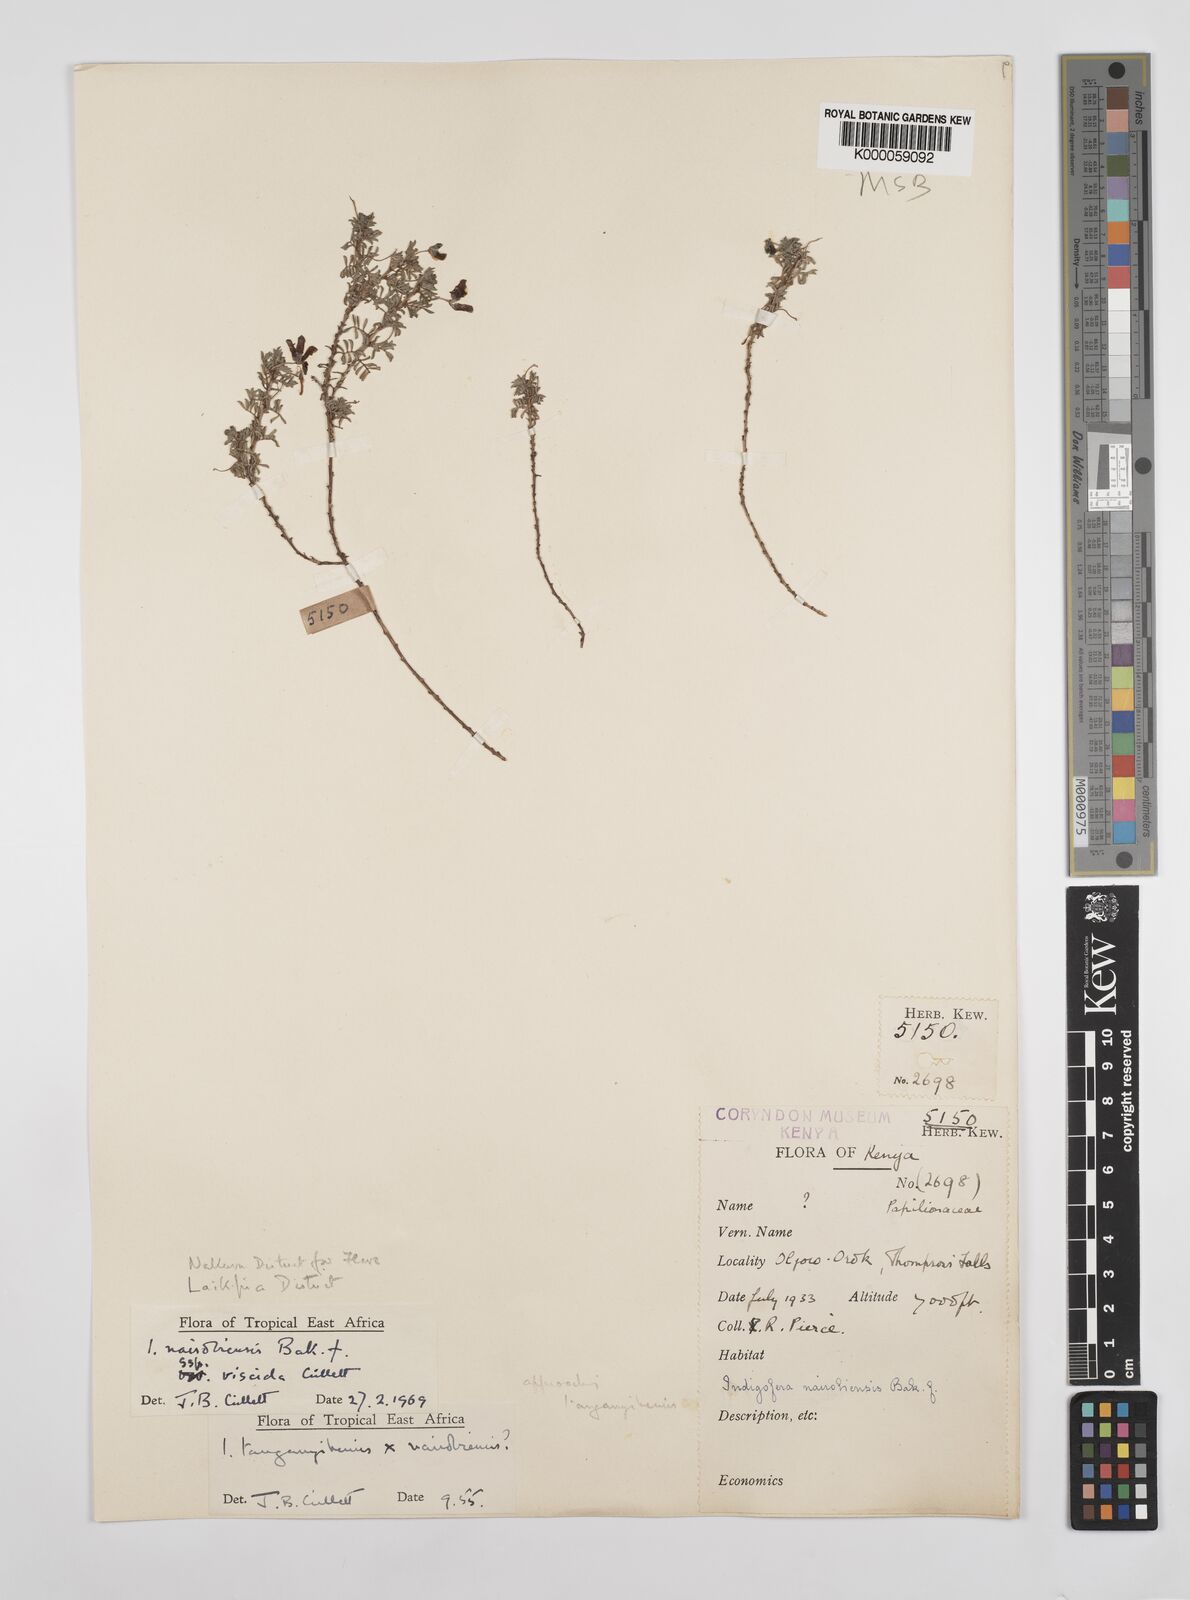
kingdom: Plantae
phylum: Tracheophyta
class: Magnoliopsida
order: Fabales
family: Fabaceae
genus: Indigofera
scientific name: Indigofera nairobiensis
